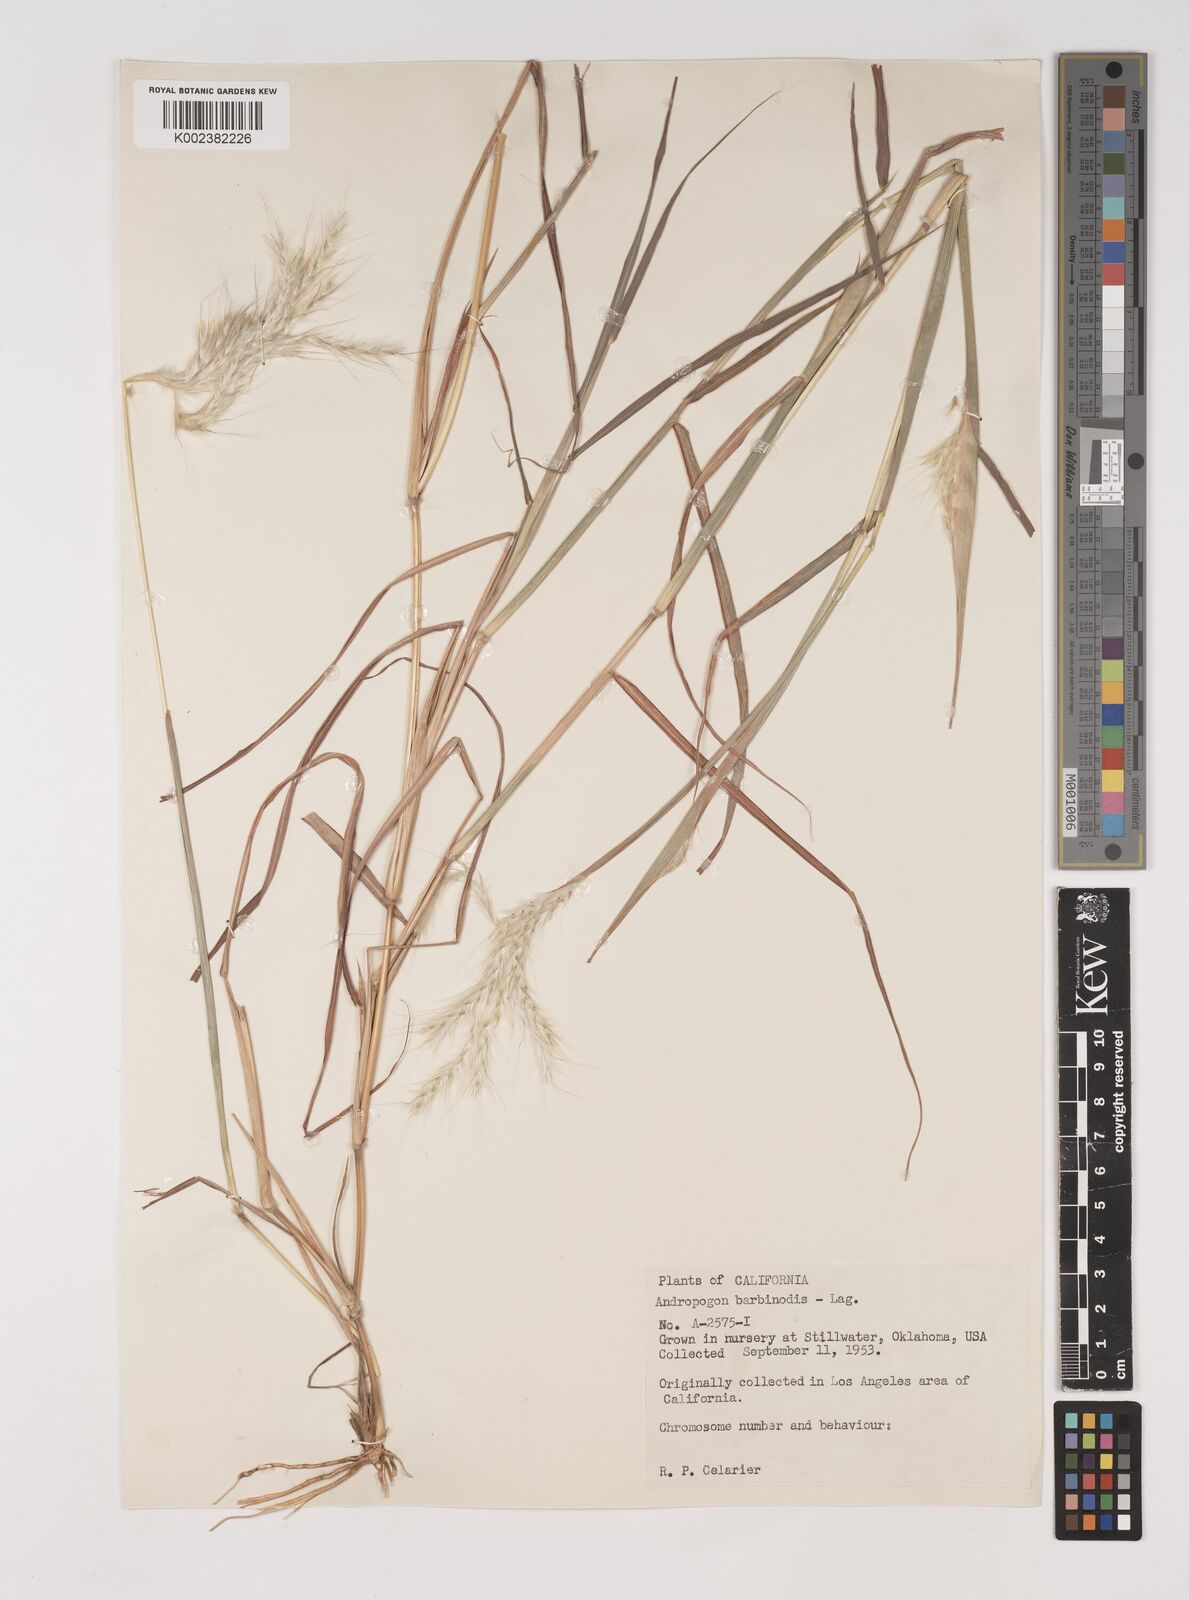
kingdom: Plantae
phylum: Tracheophyta
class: Liliopsida
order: Poales
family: Poaceae
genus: Bothriochloa
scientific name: Bothriochloa springfieldii
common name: Springfield bluestem
